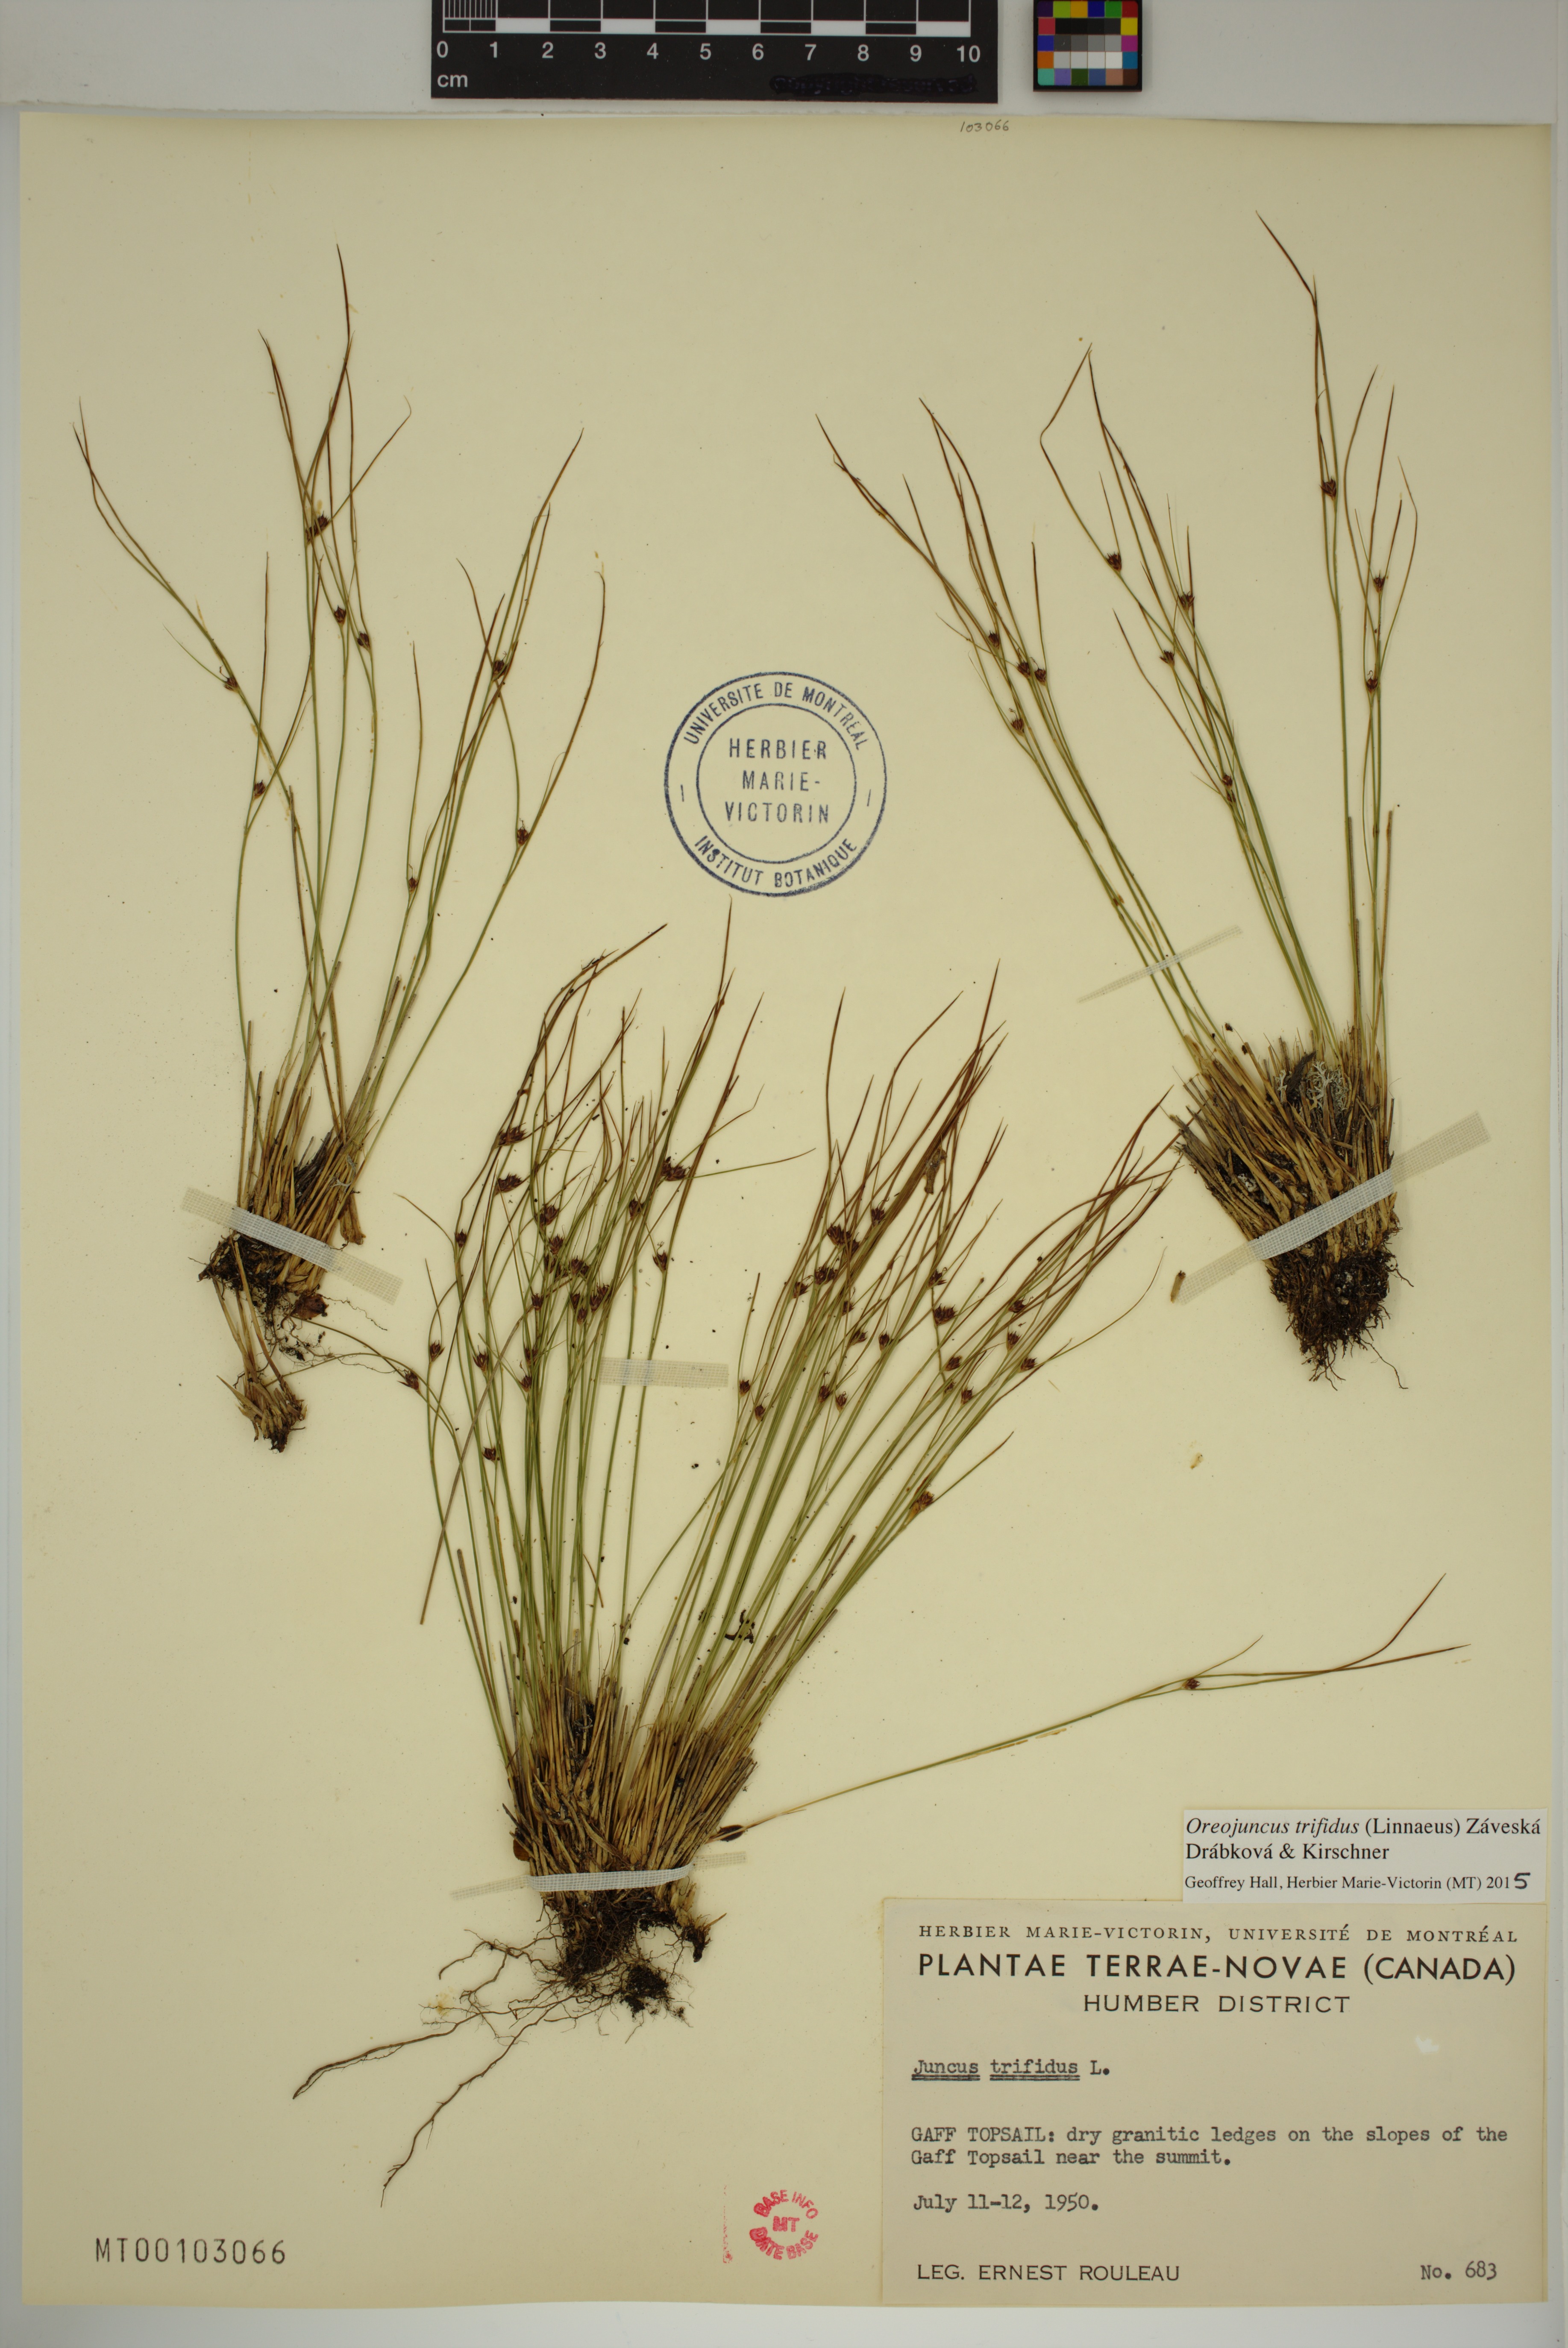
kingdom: Plantae
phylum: Tracheophyta
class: Liliopsida
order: Poales
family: Juncaceae
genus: Oreojuncus
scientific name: Oreojuncus trifidus
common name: Highland rush
